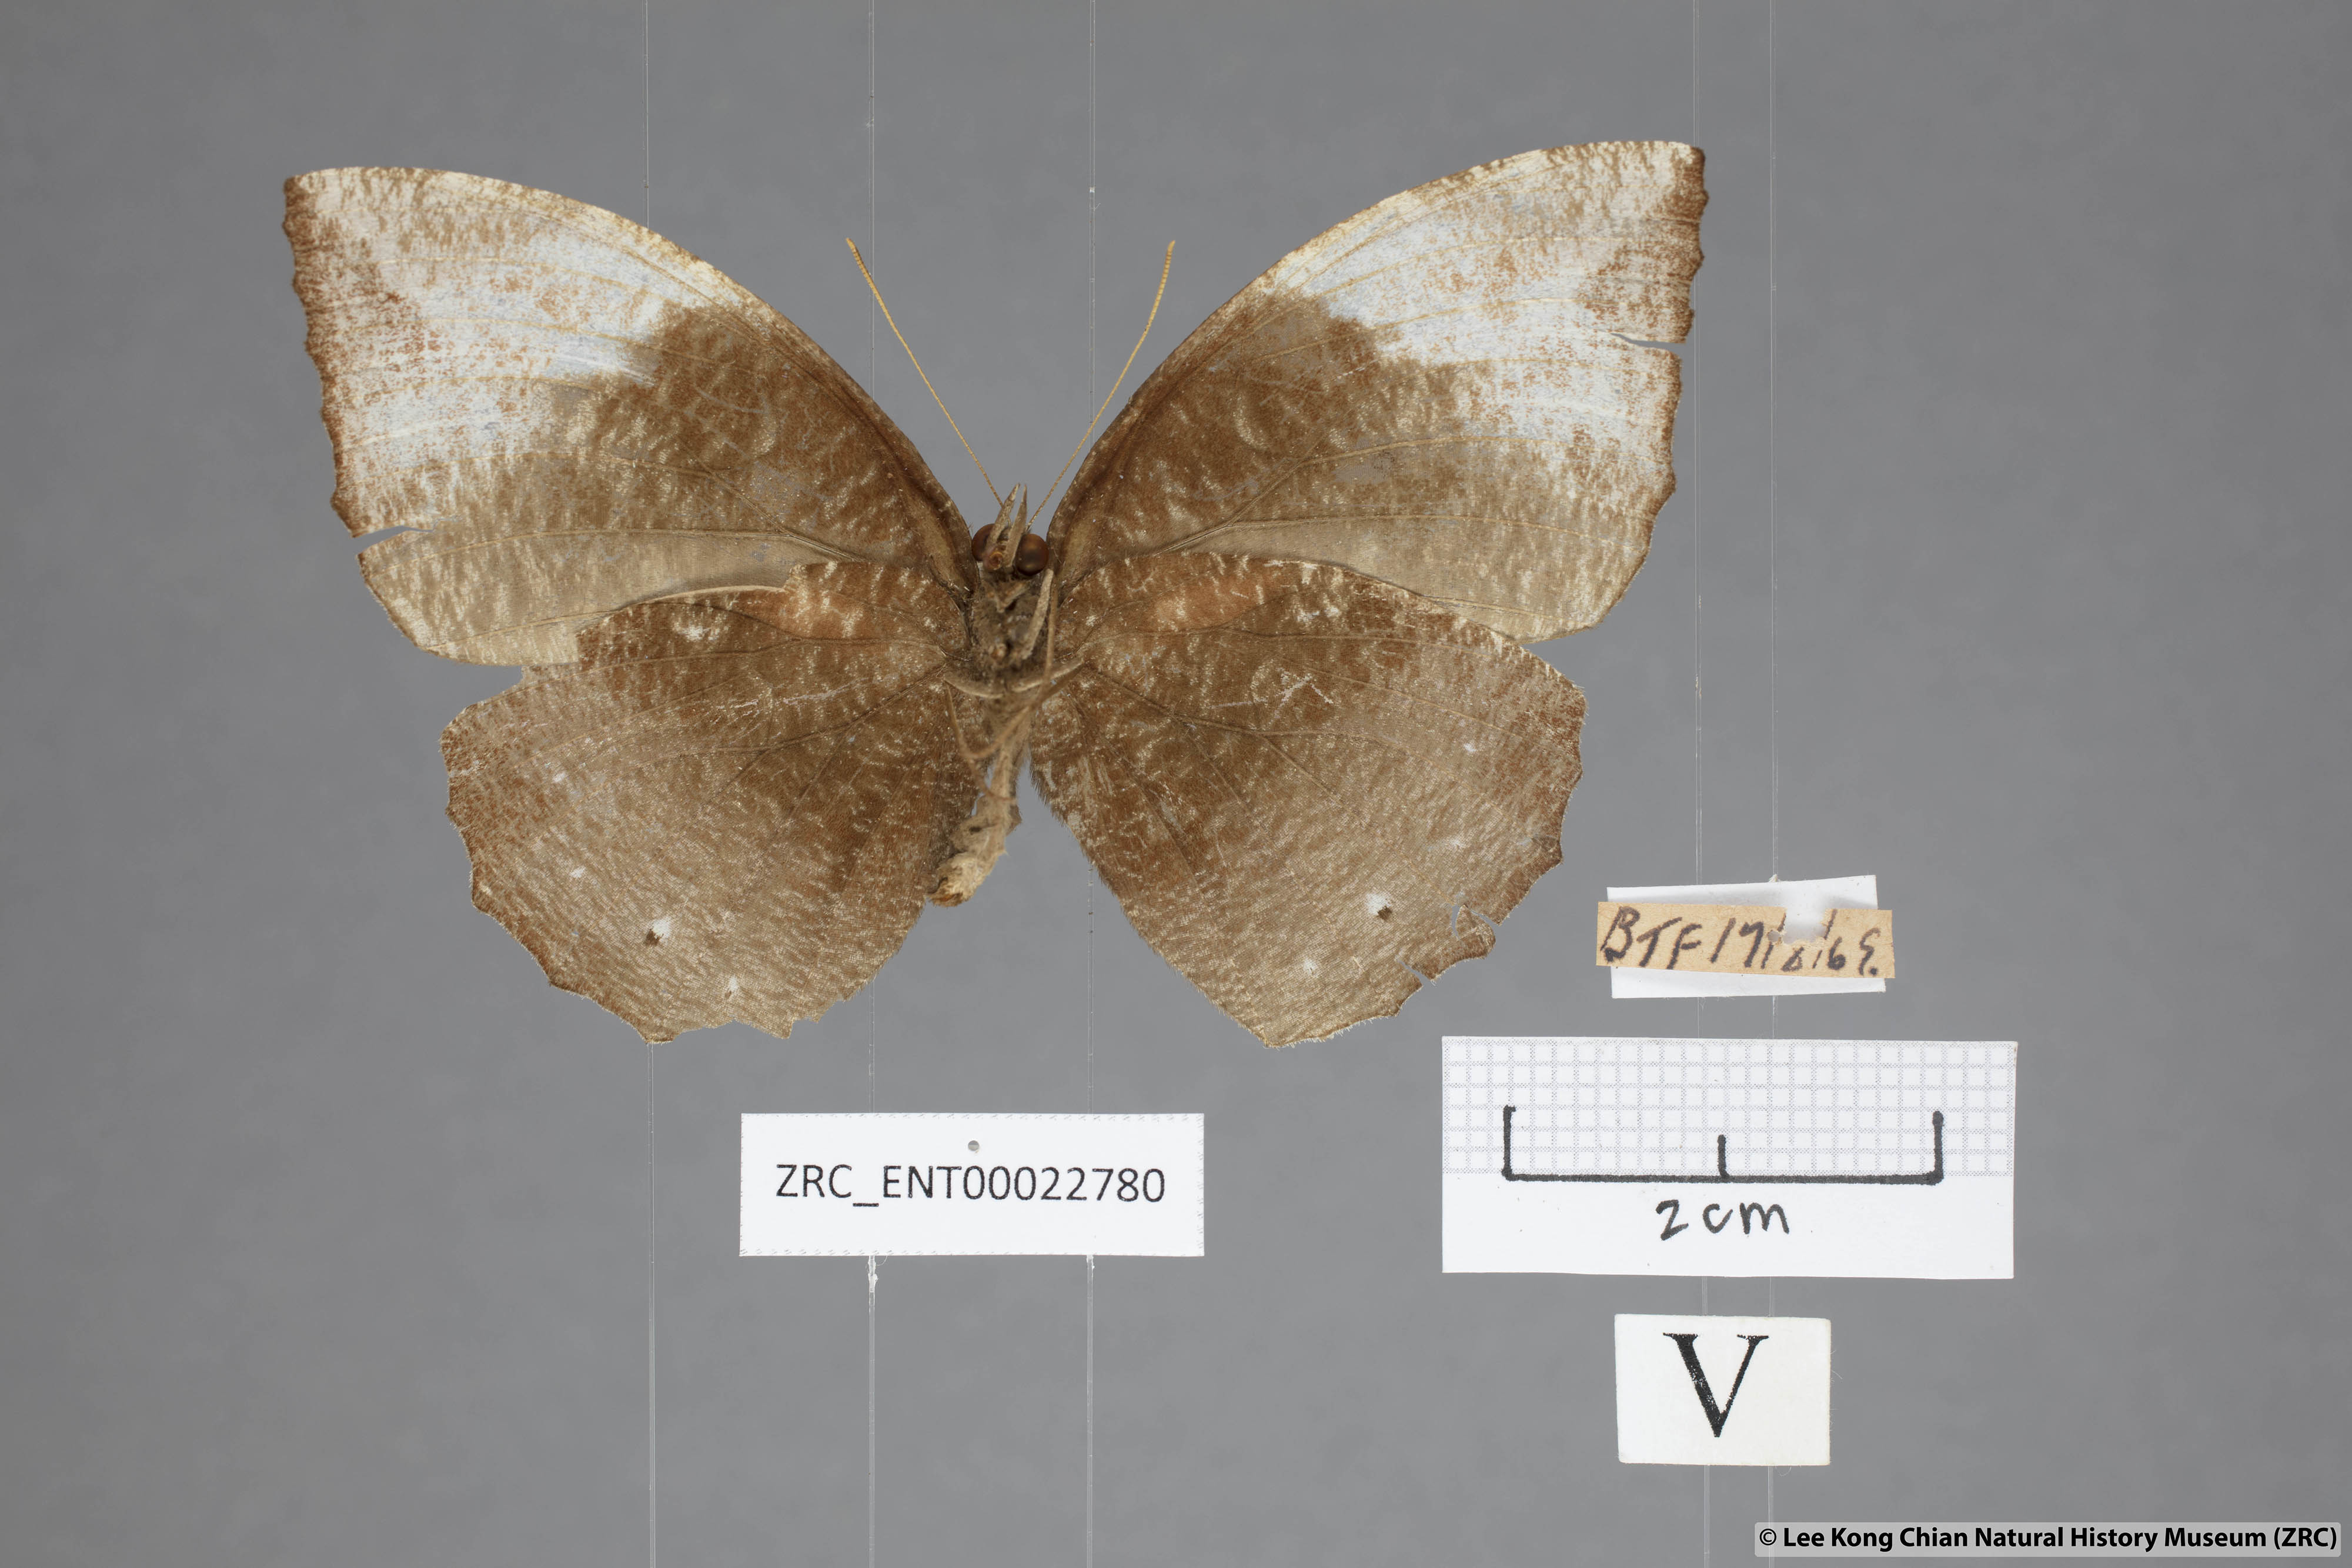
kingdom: Animalia
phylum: Arthropoda
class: Insecta
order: Lepidoptera
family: Nymphalidae
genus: Elymnias
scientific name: Elymnias penanga
